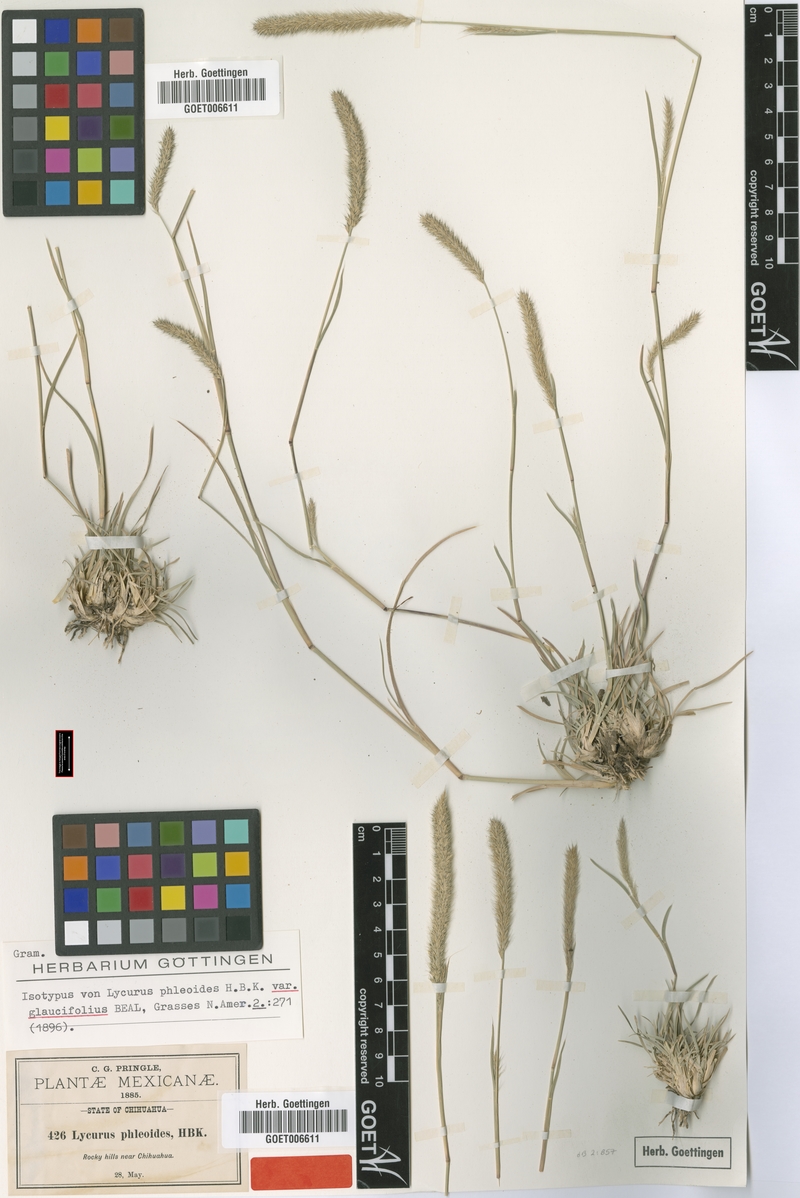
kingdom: Plantae
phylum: Tracheophyta
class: Liliopsida
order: Poales
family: Poaceae
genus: Muhlenbergia
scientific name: Muhlenbergia phleoides
